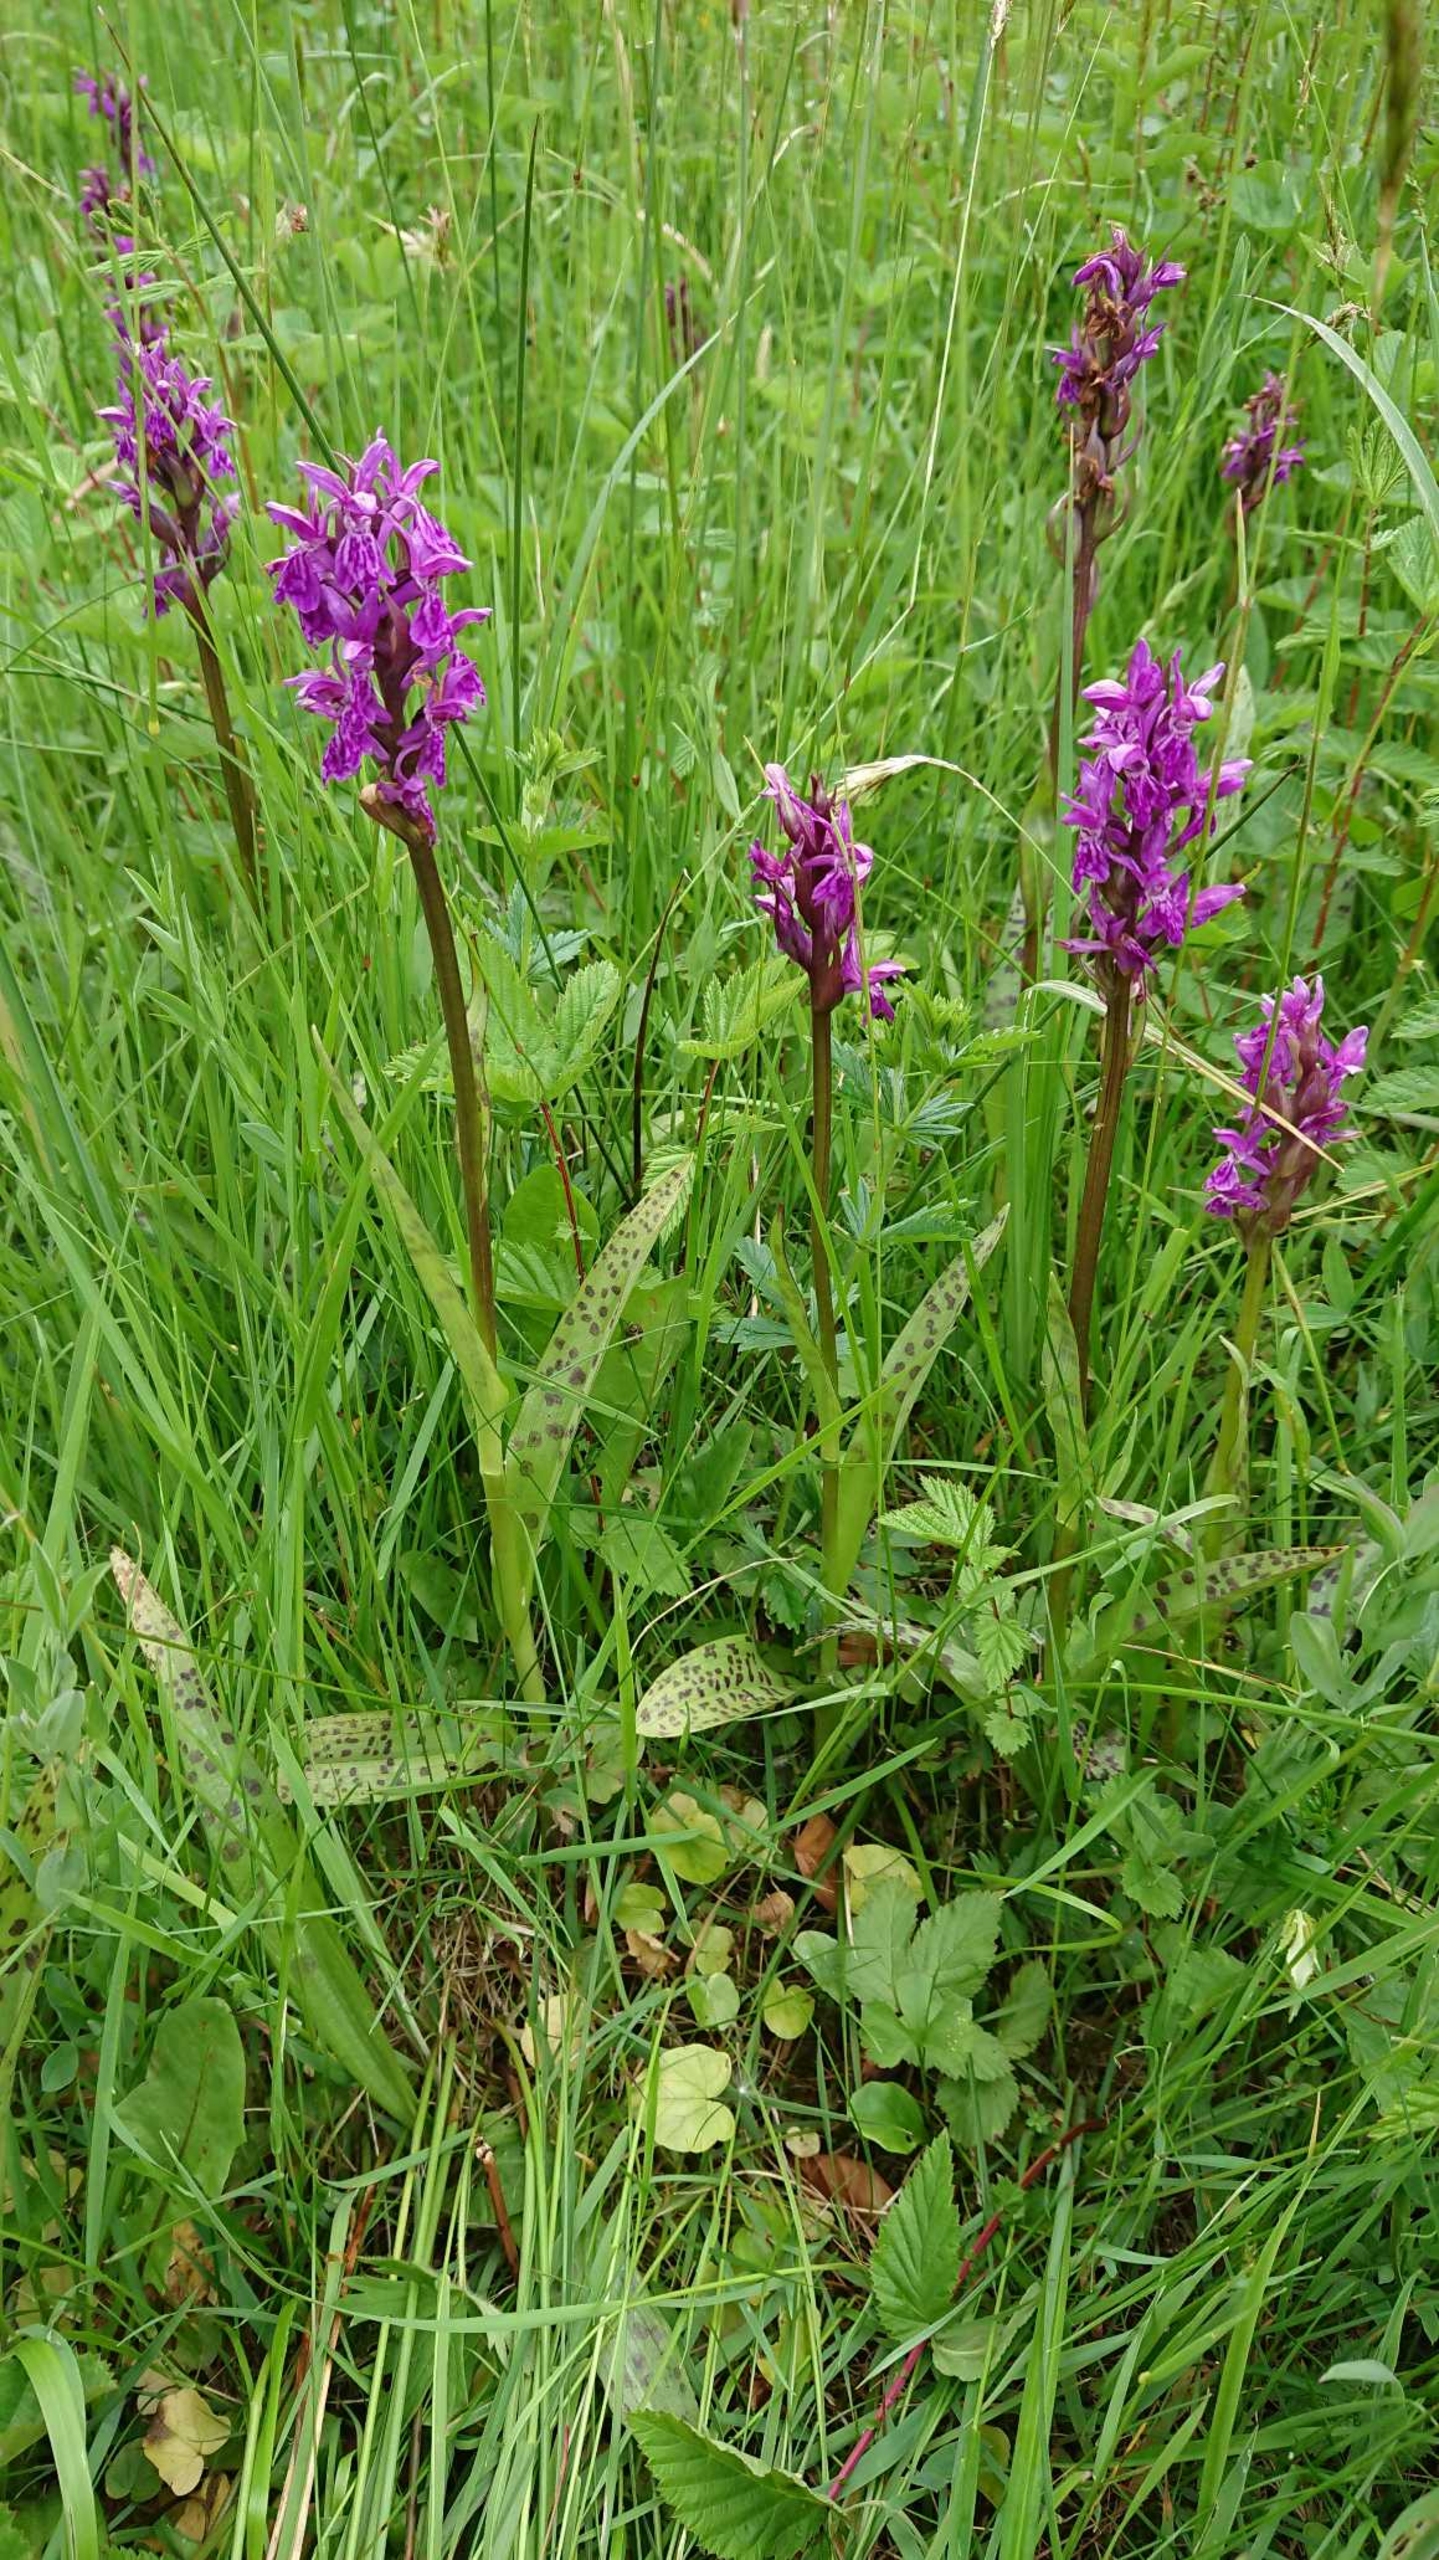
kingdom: Plantae
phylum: Tracheophyta
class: Liliopsida
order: Asparagales
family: Orchidaceae
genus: Dactylorhiza
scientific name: Dactylorhiza majalis
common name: Maj-gøgeurt (underart)
